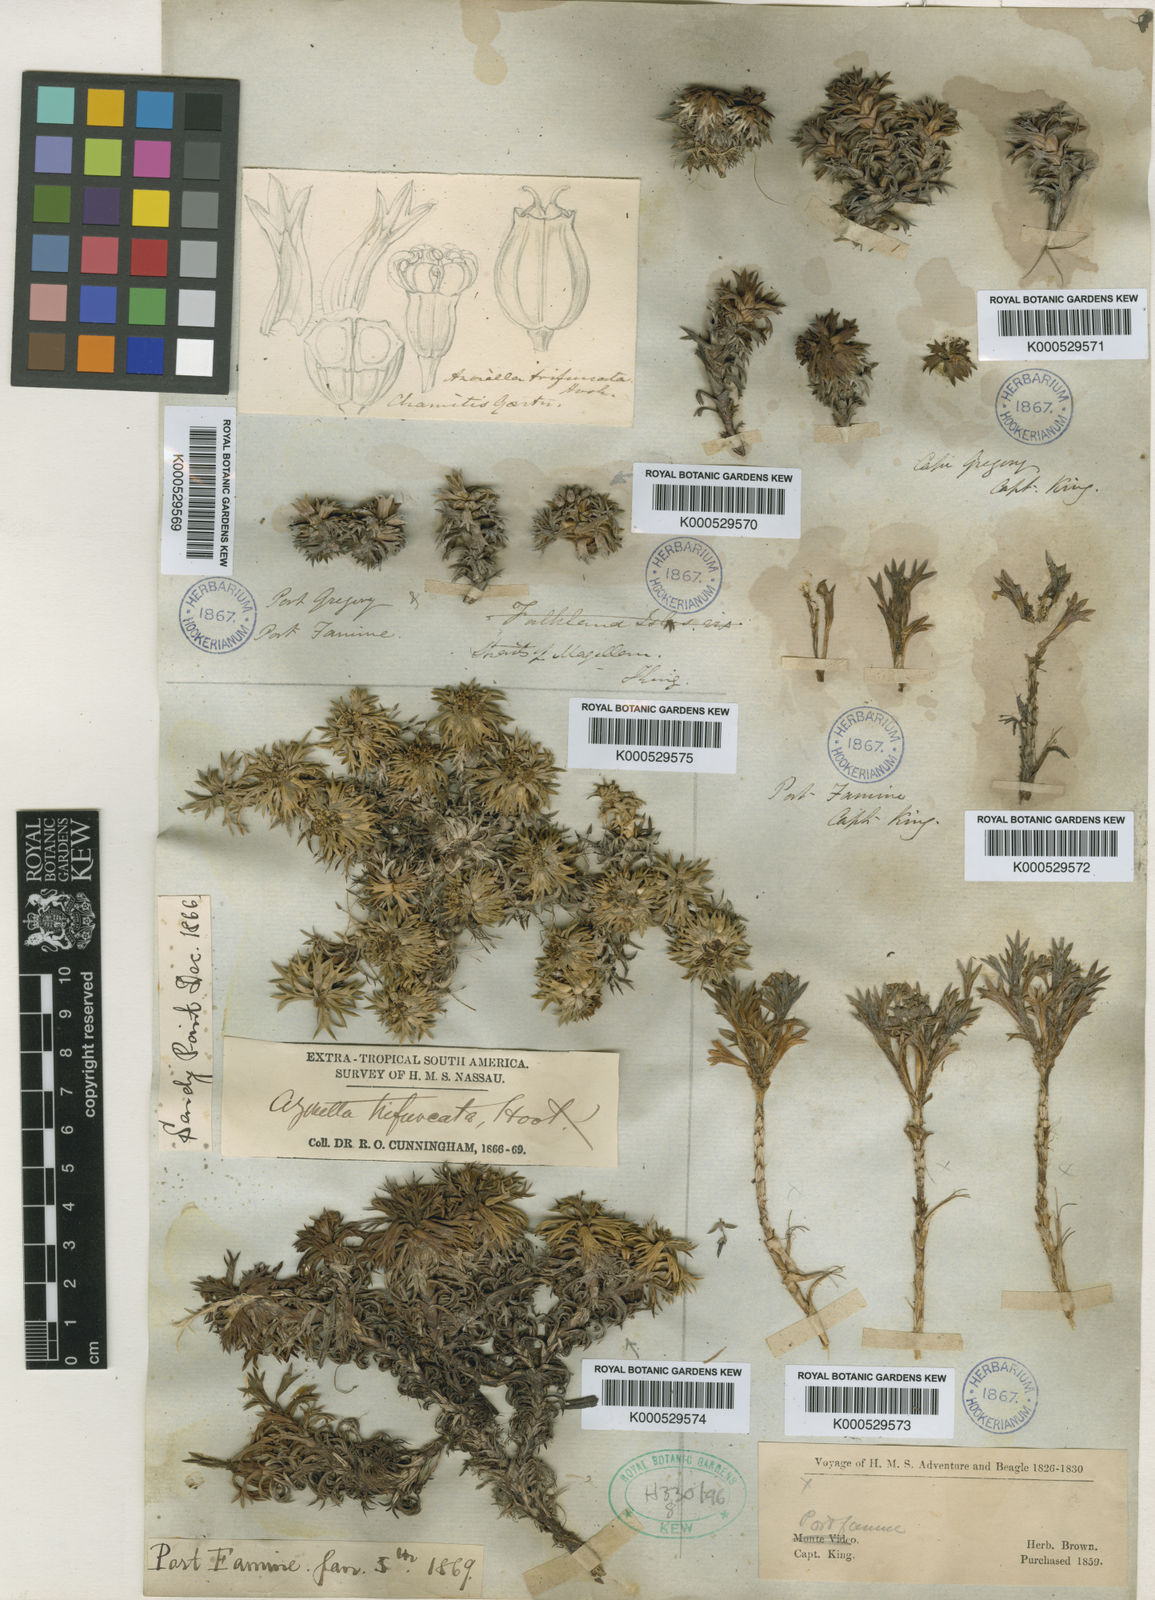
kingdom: Plantae
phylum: Tracheophyta
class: Magnoliopsida
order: Apiales
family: Apiaceae
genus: Azorella
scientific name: Azorella
